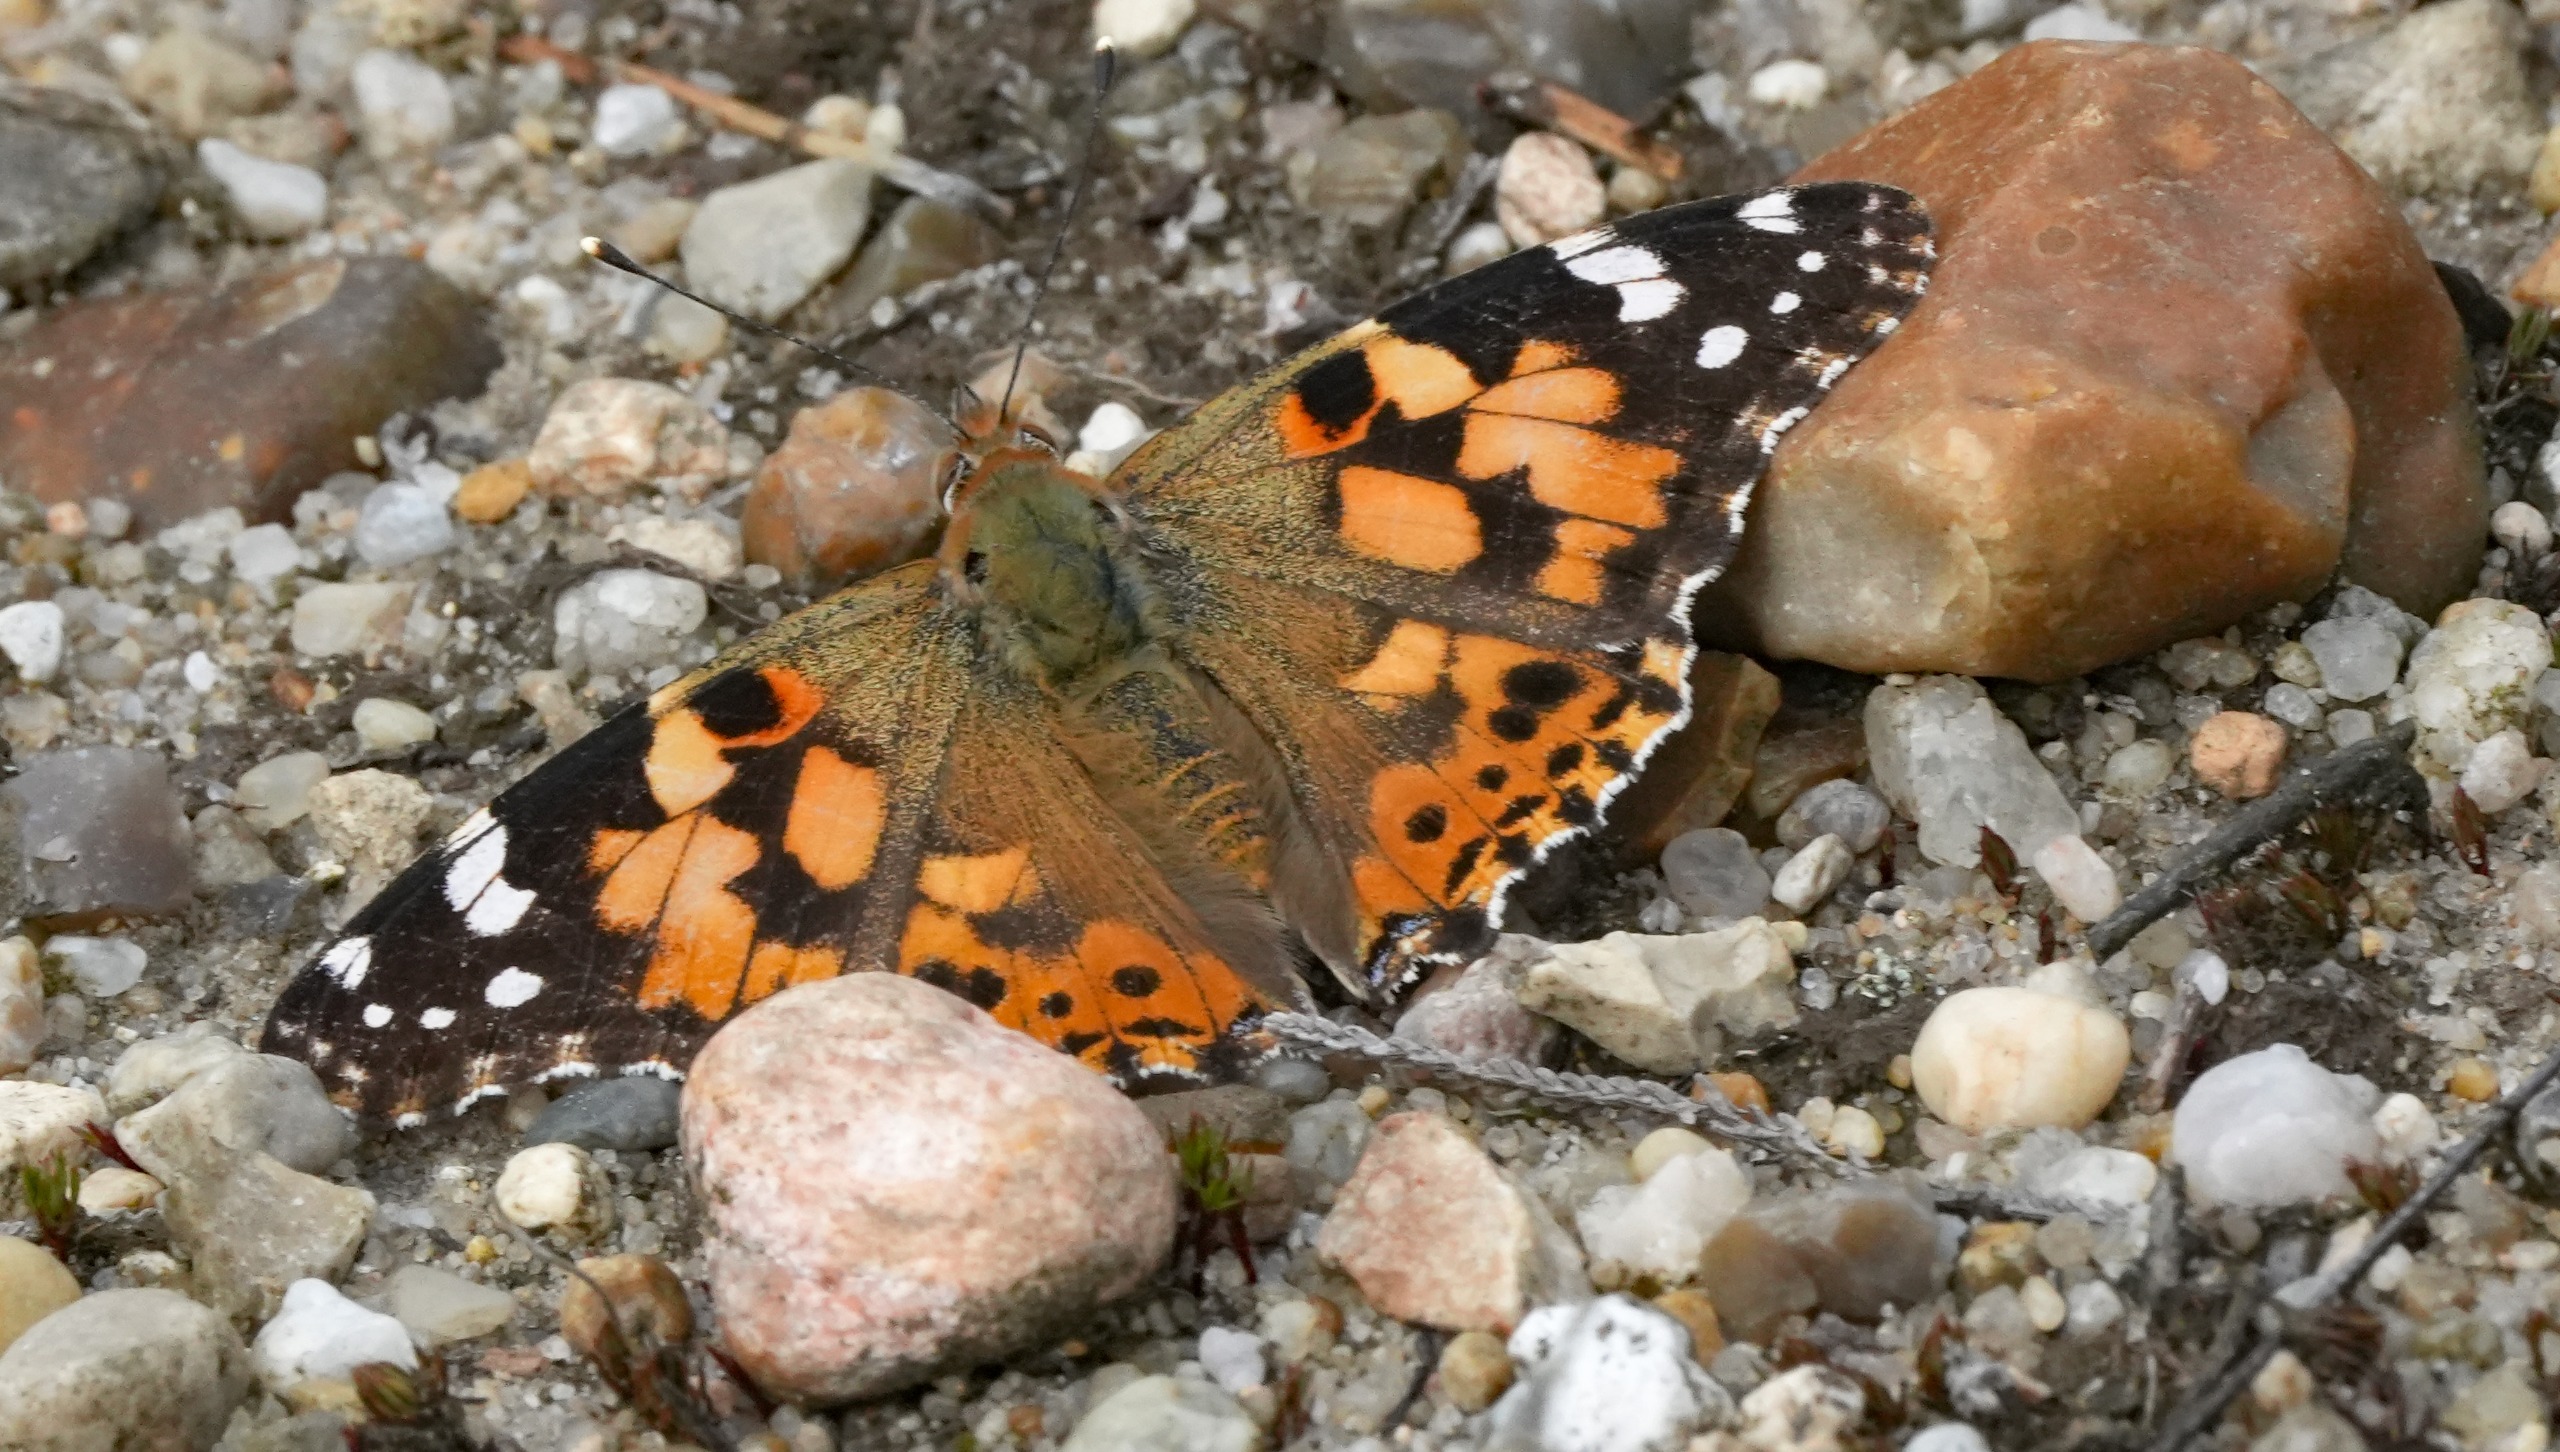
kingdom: Animalia
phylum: Arthropoda
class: Insecta
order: Lepidoptera
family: Nymphalidae
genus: Vanessa
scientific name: Vanessa cardui
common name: Tidselsommerfugl
